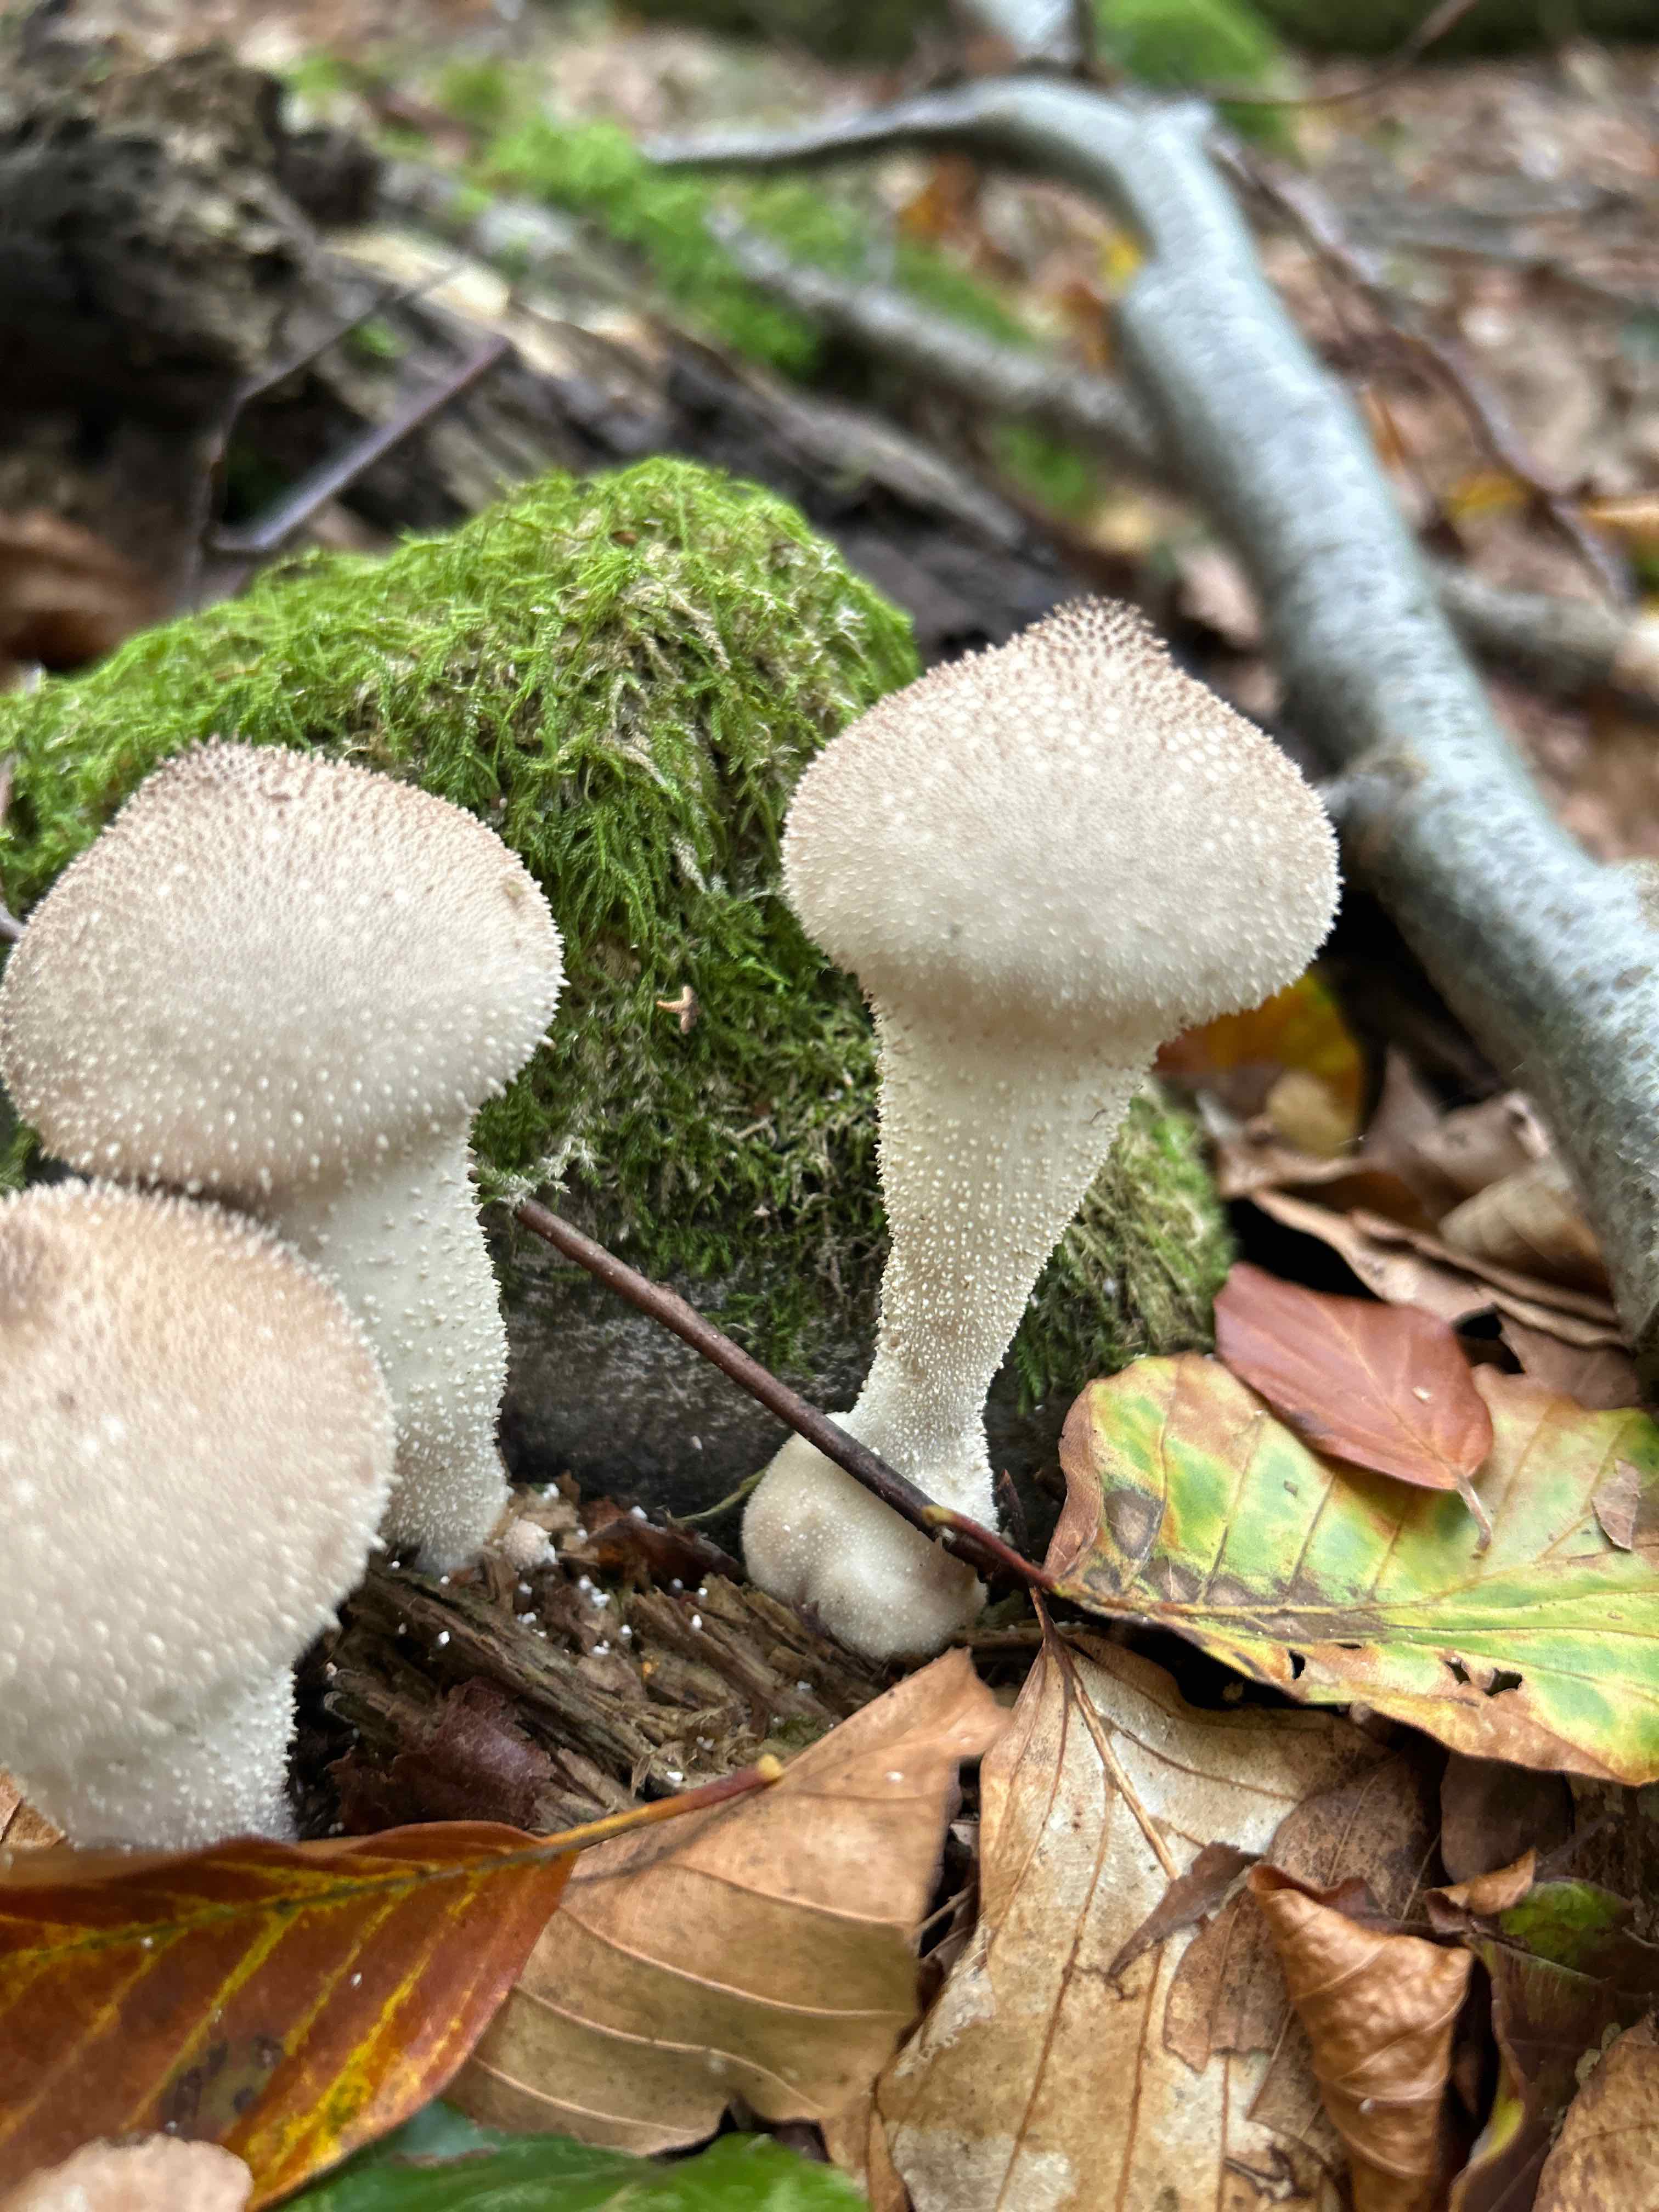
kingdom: Fungi
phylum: Basidiomycota
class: Agaricomycetes
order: Agaricales
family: Lycoperdaceae
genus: Lycoperdon
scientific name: Lycoperdon perlatum
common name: krystal-støvbold
